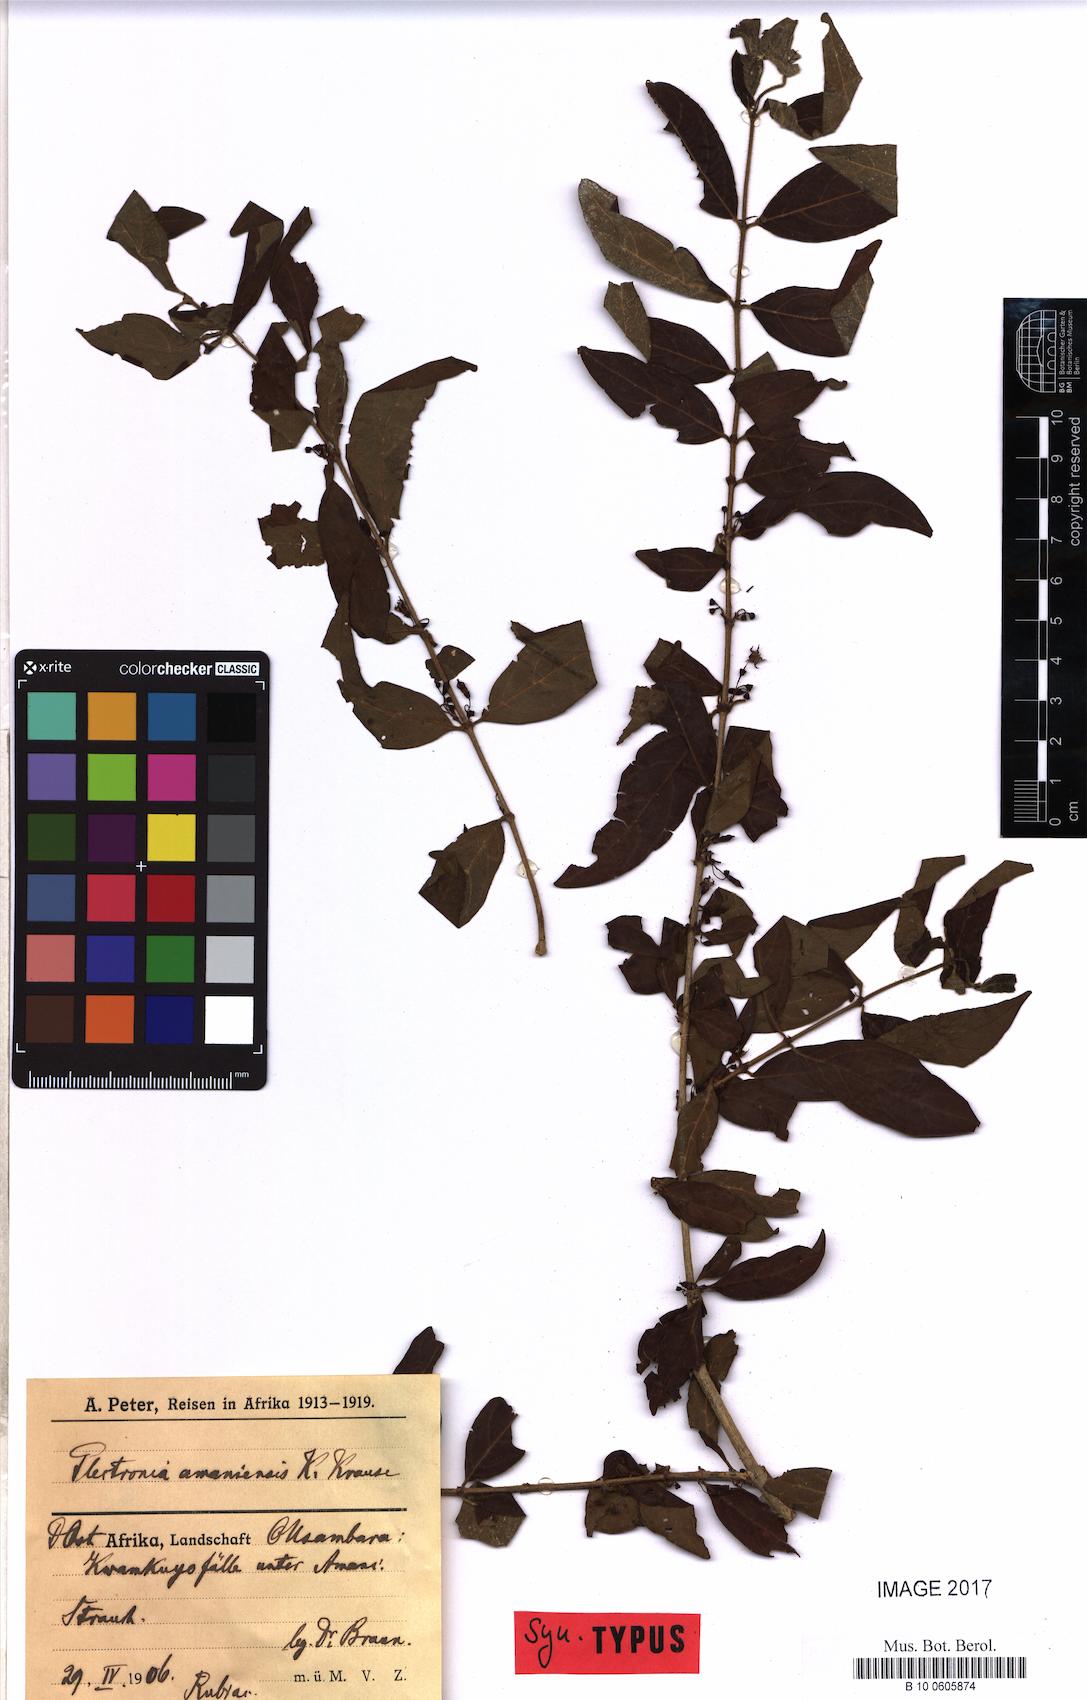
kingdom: Plantae
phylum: Tracheophyta
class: Magnoliopsida
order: Gentianales
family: Rubiaceae
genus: Rytigynia
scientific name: Rytigynia celastroides
